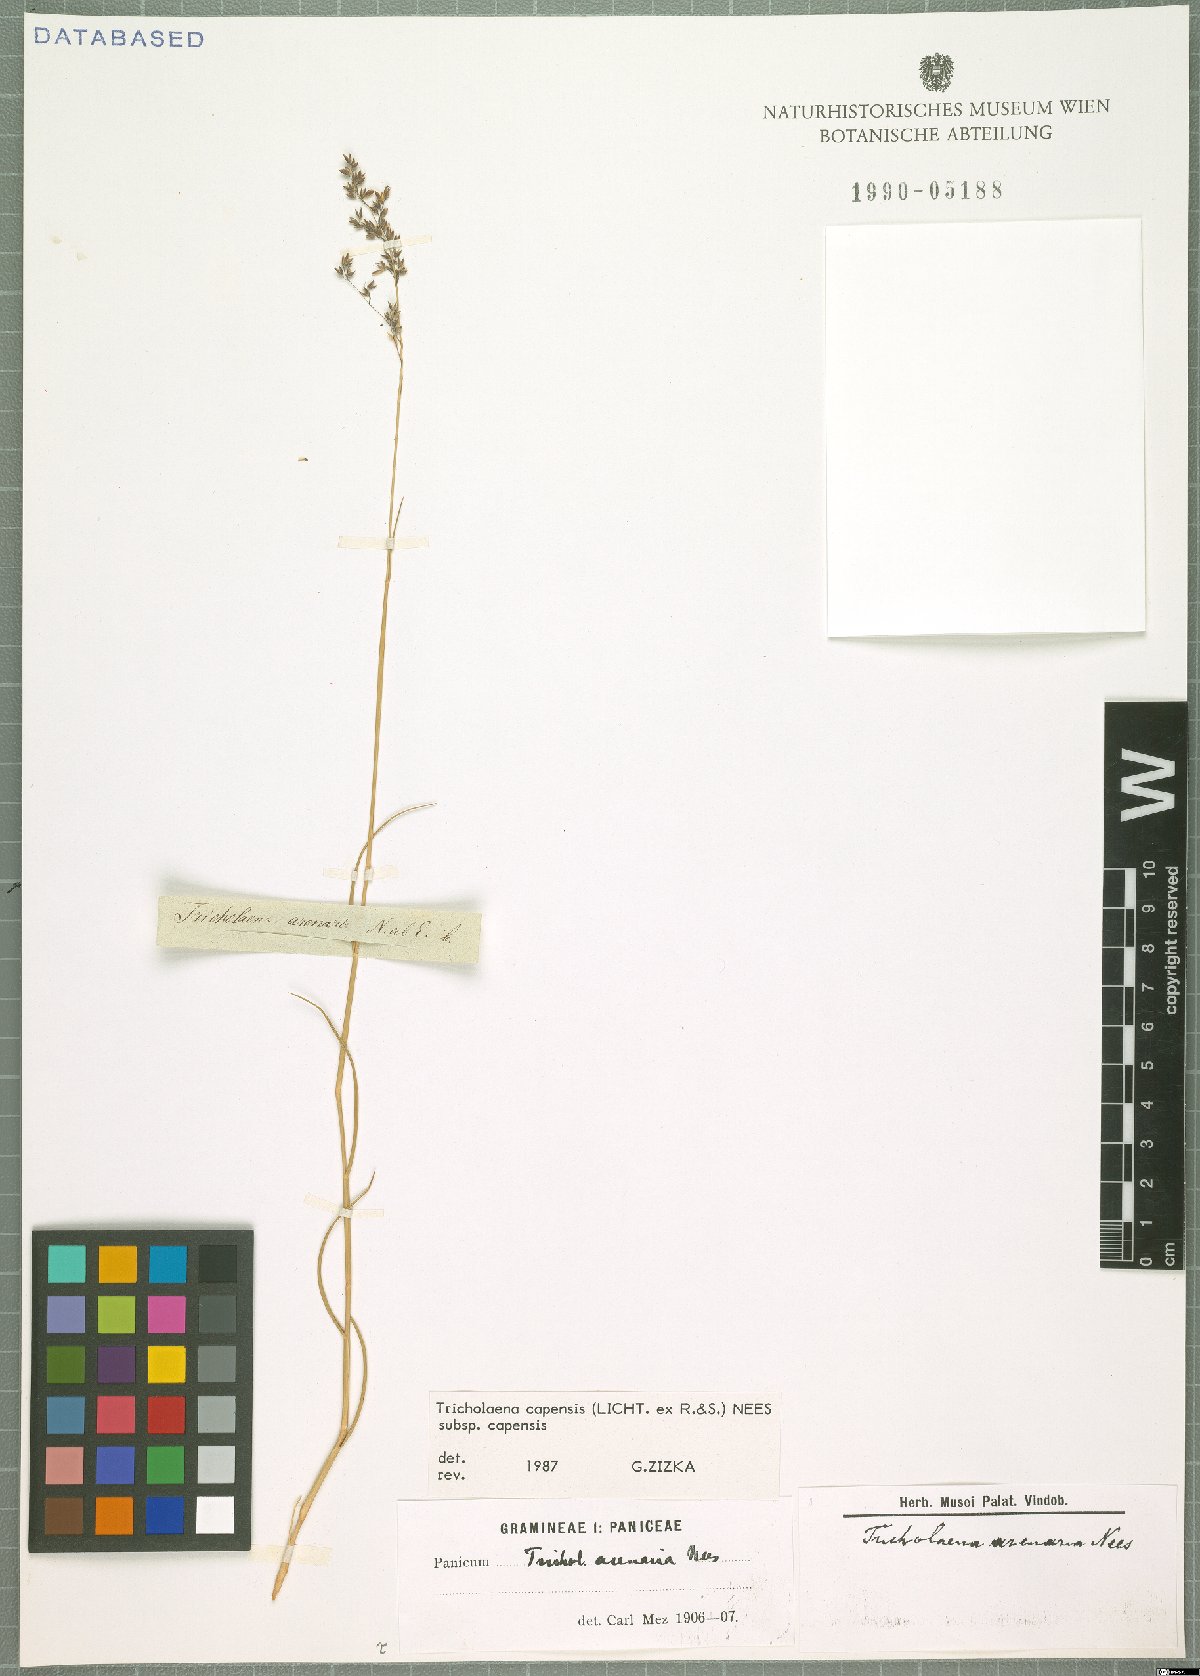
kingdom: Plantae
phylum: Tracheophyta
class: Liliopsida
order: Poales
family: Poaceae
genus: Tricholaena
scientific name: Tricholaena capensis
